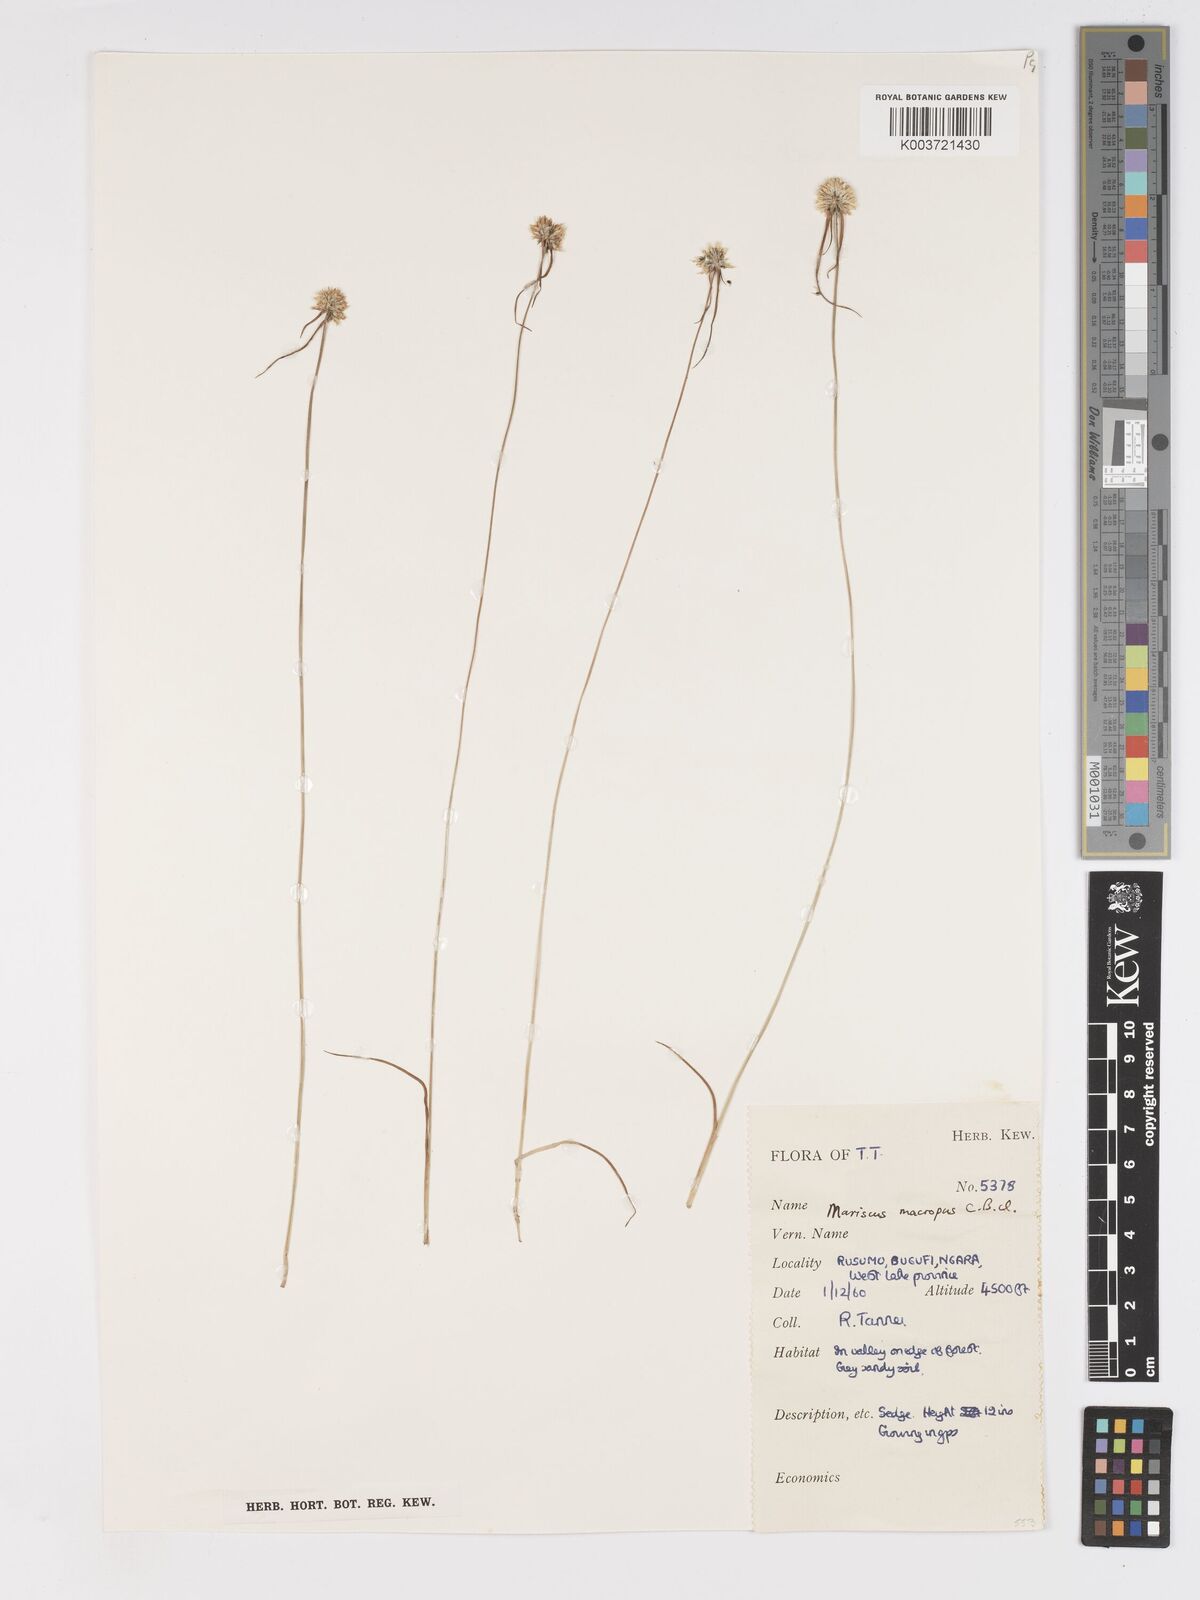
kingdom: Plantae
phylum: Tracheophyta
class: Liliopsida
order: Poales
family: Cyperaceae
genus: Cyperus
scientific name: Cyperus mollipes
